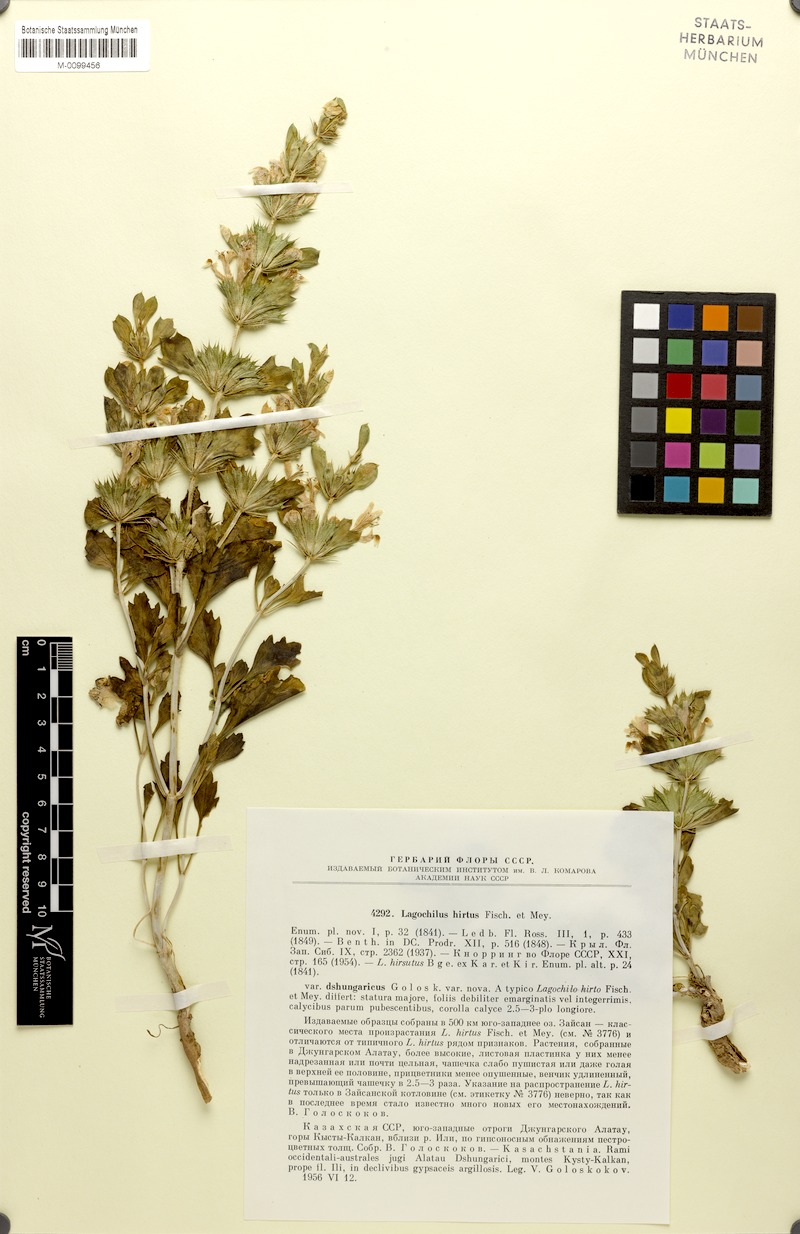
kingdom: Plantae
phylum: Tracheophyta
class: Magnoliopsida
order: Lamiales
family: Lamiaceae
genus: Lagochilus
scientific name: Lagochilus hirtus
